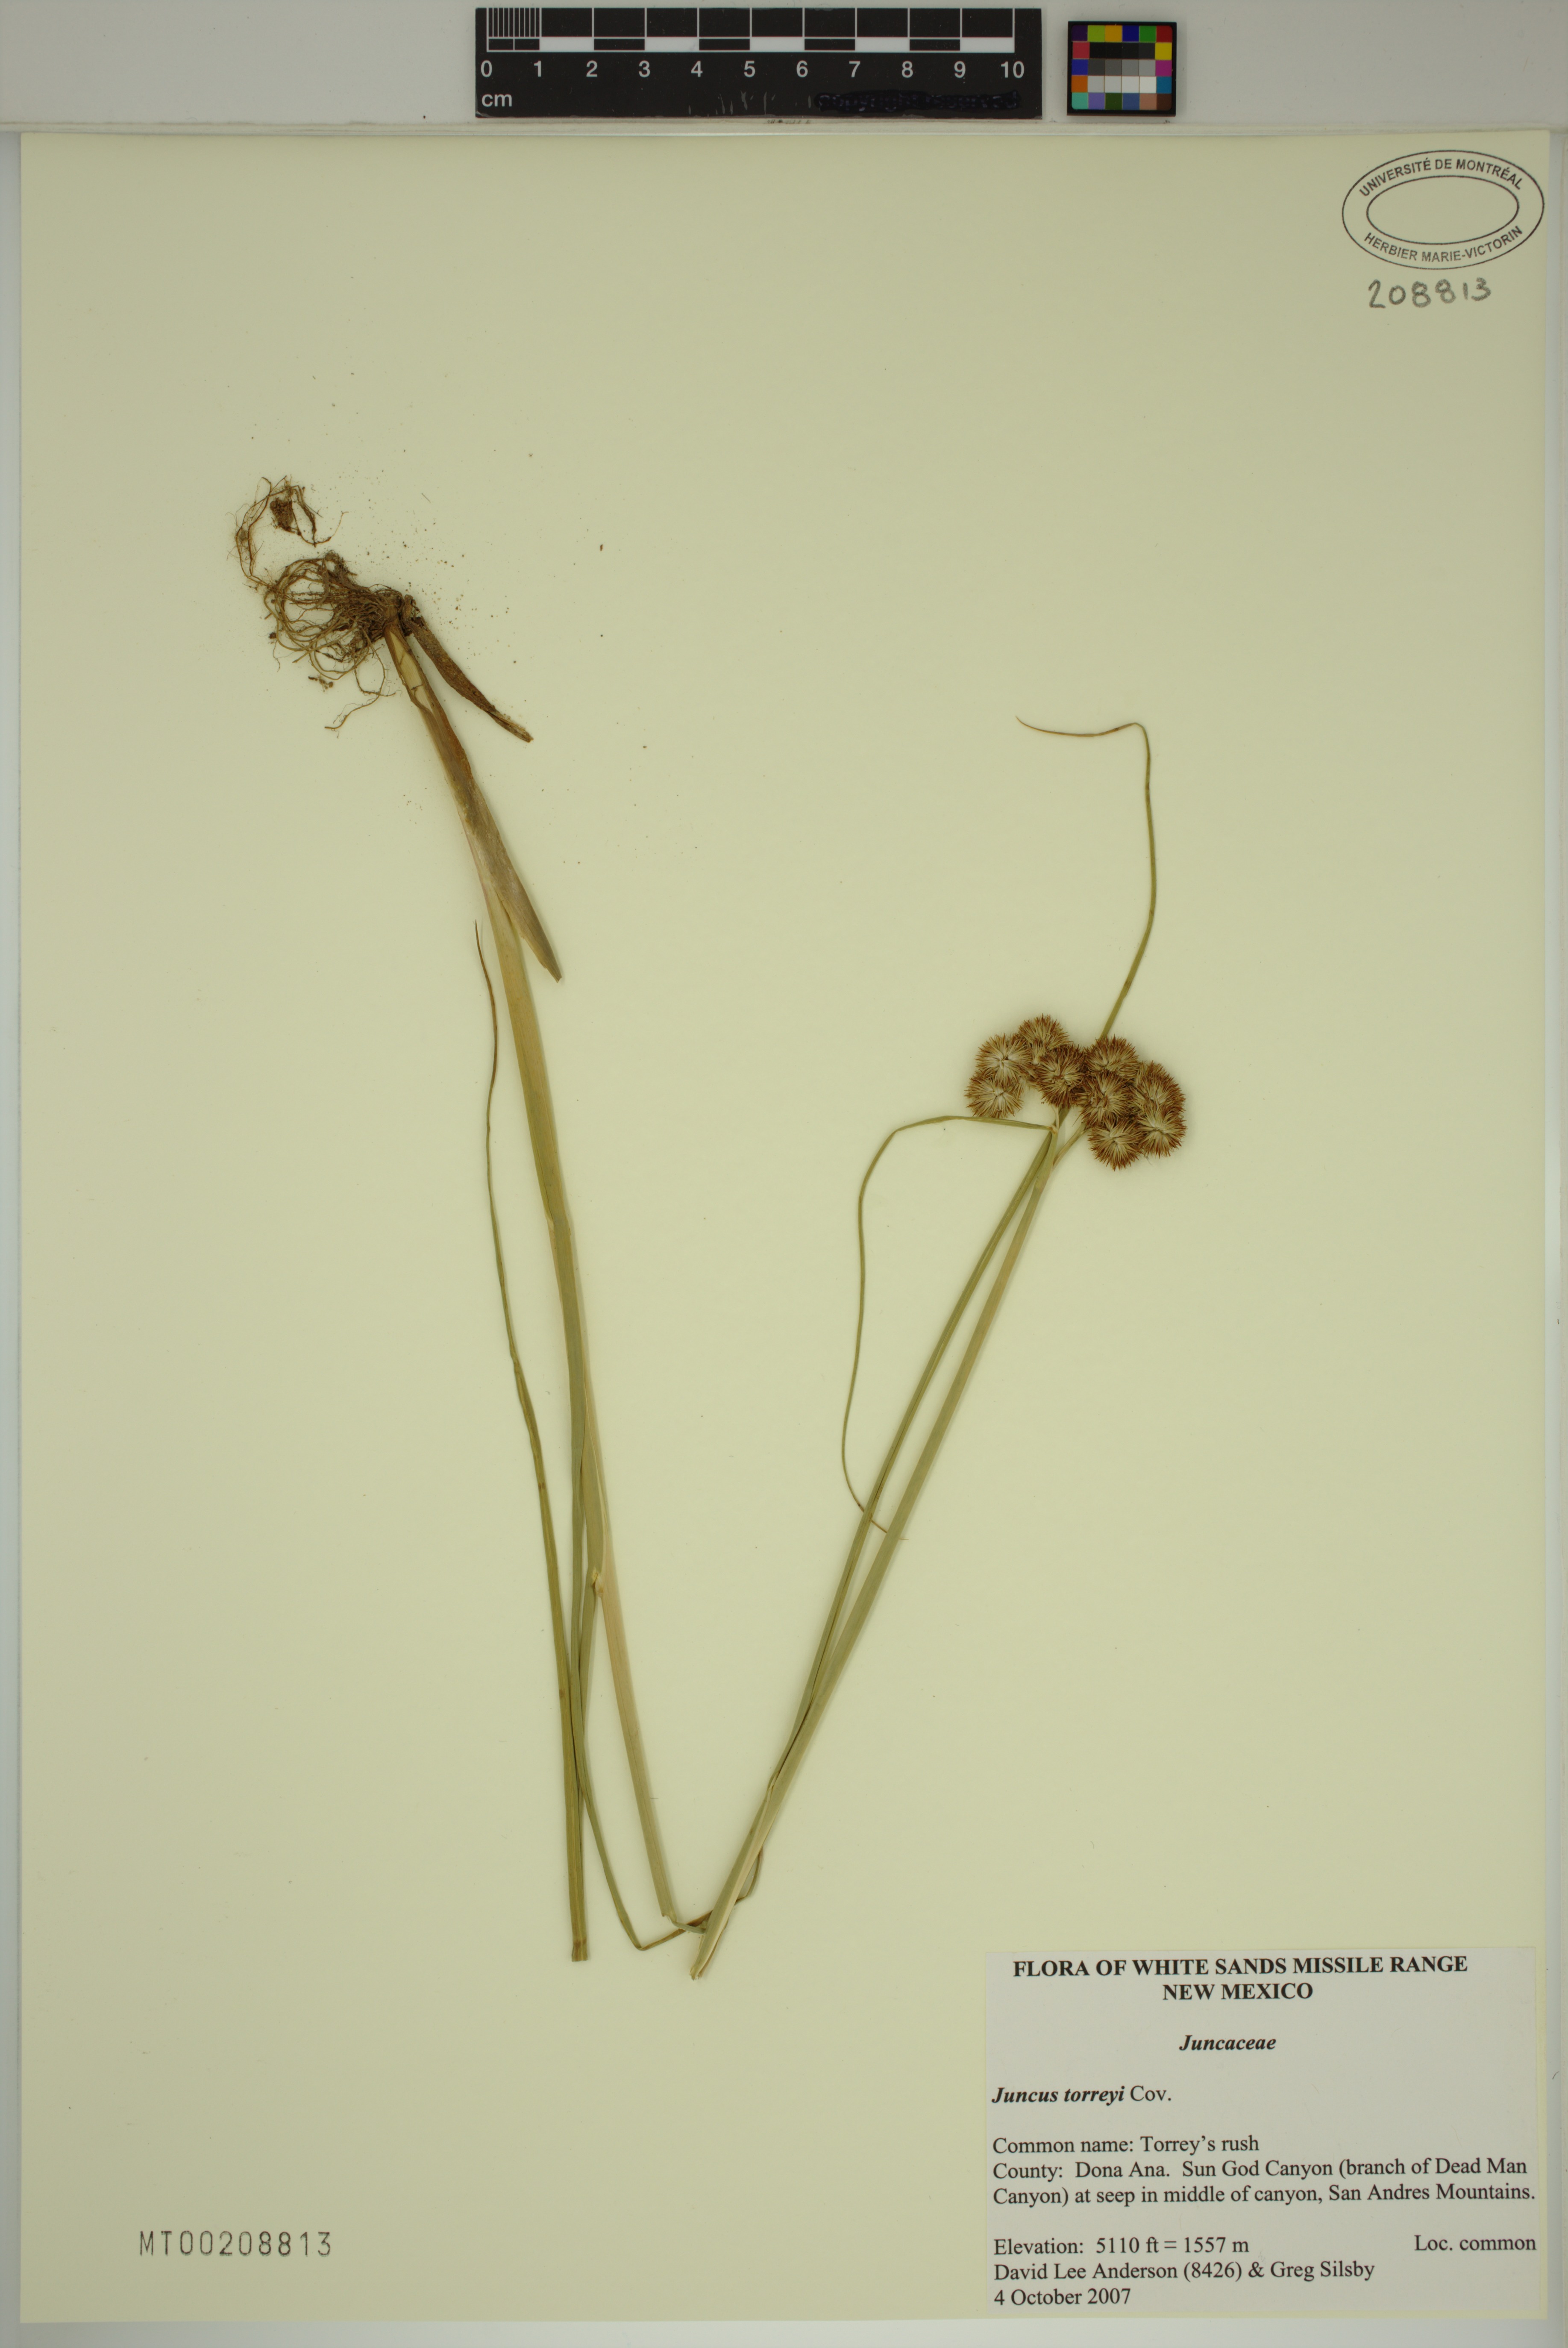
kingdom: Plantae
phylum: Tracheophyta
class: Liliopsida
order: Poales
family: Juncaceae
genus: Juncus
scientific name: Juncus torreyi
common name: Torrey's rush
